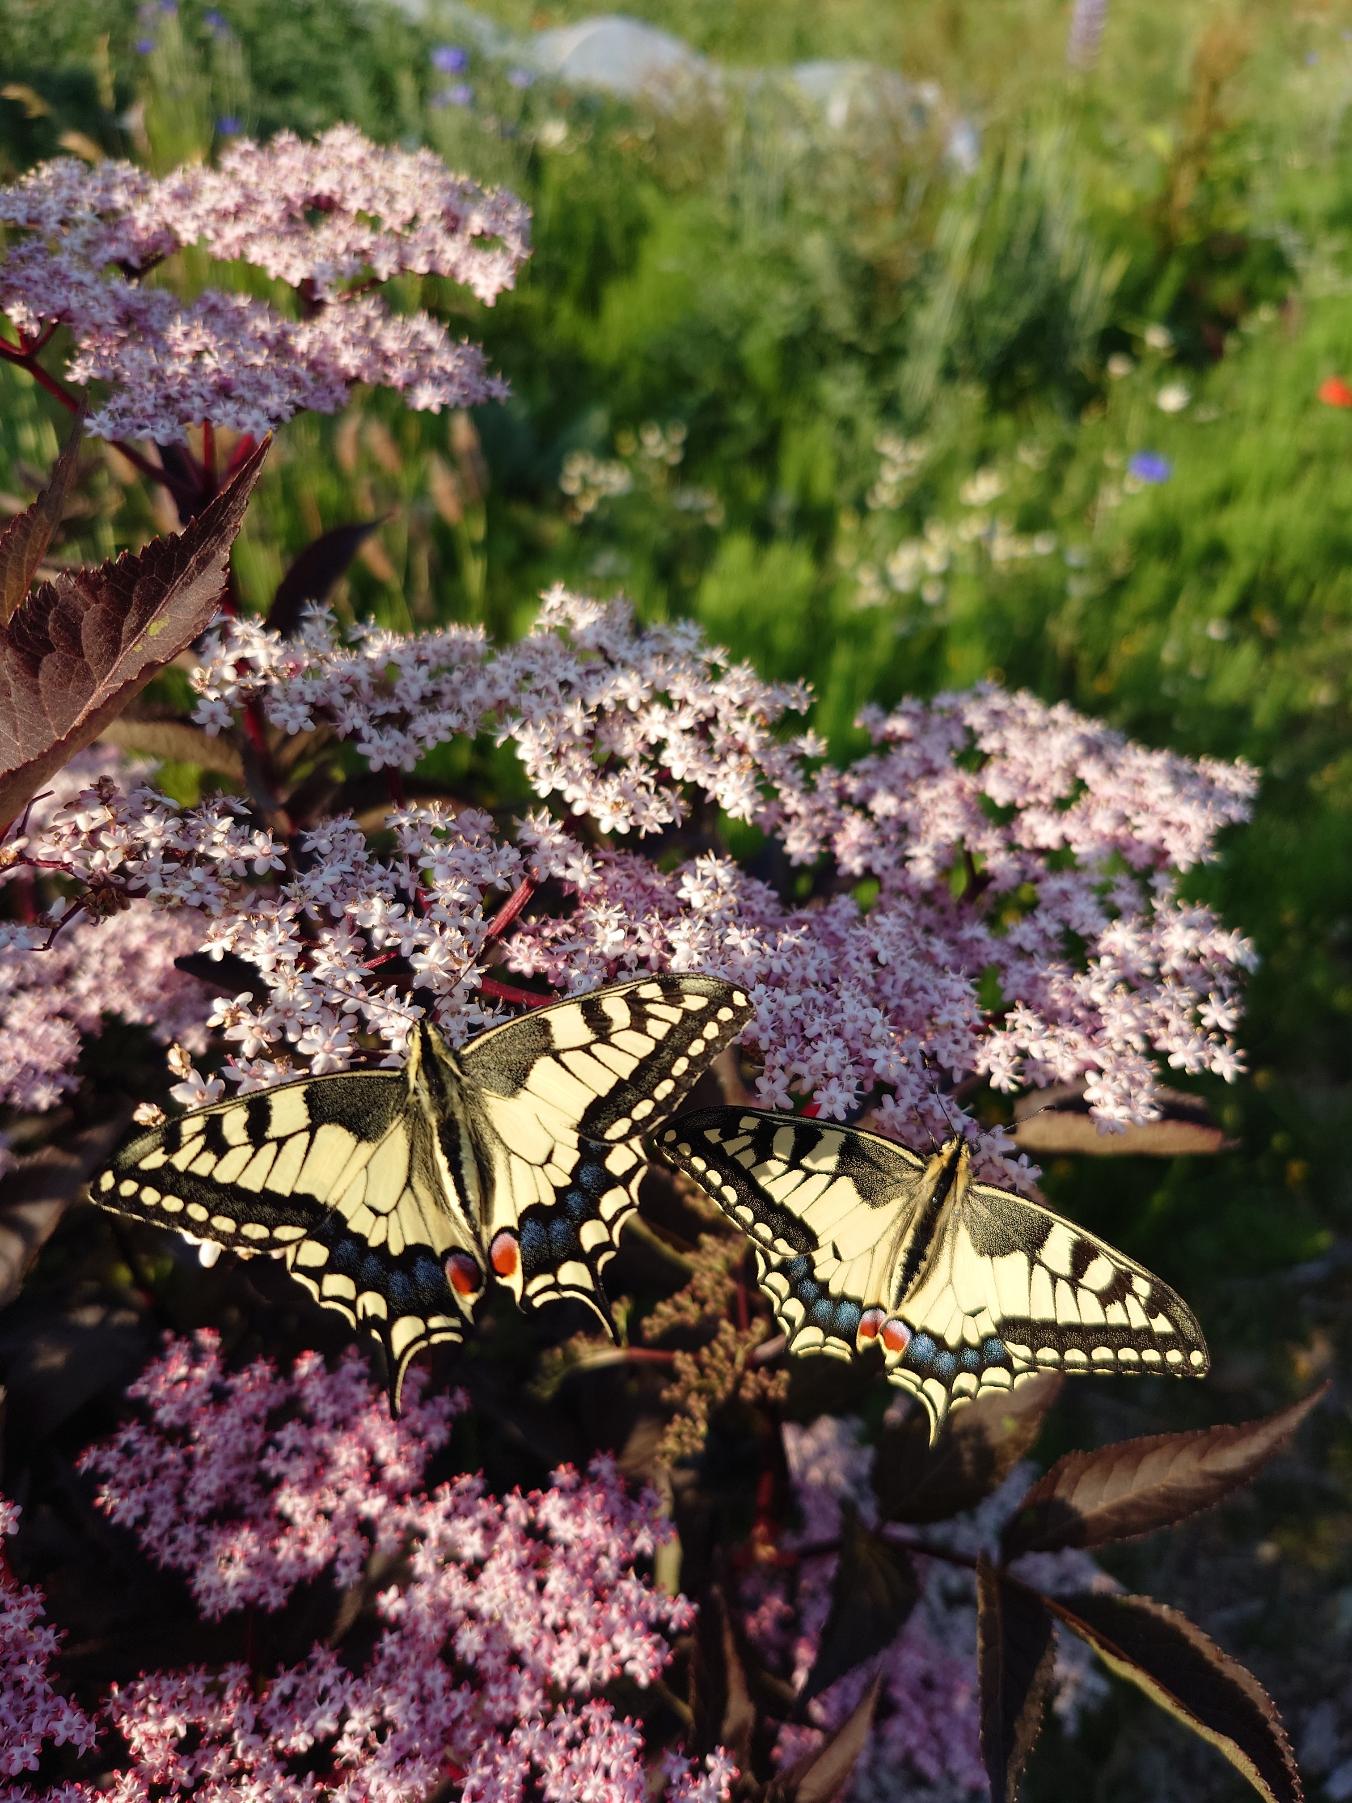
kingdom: Animalia
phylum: Arthropoda
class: Insecta
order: Lepidoptera
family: Papilionidae
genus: Papilio
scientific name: Papilio machaon
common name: Svalehale
